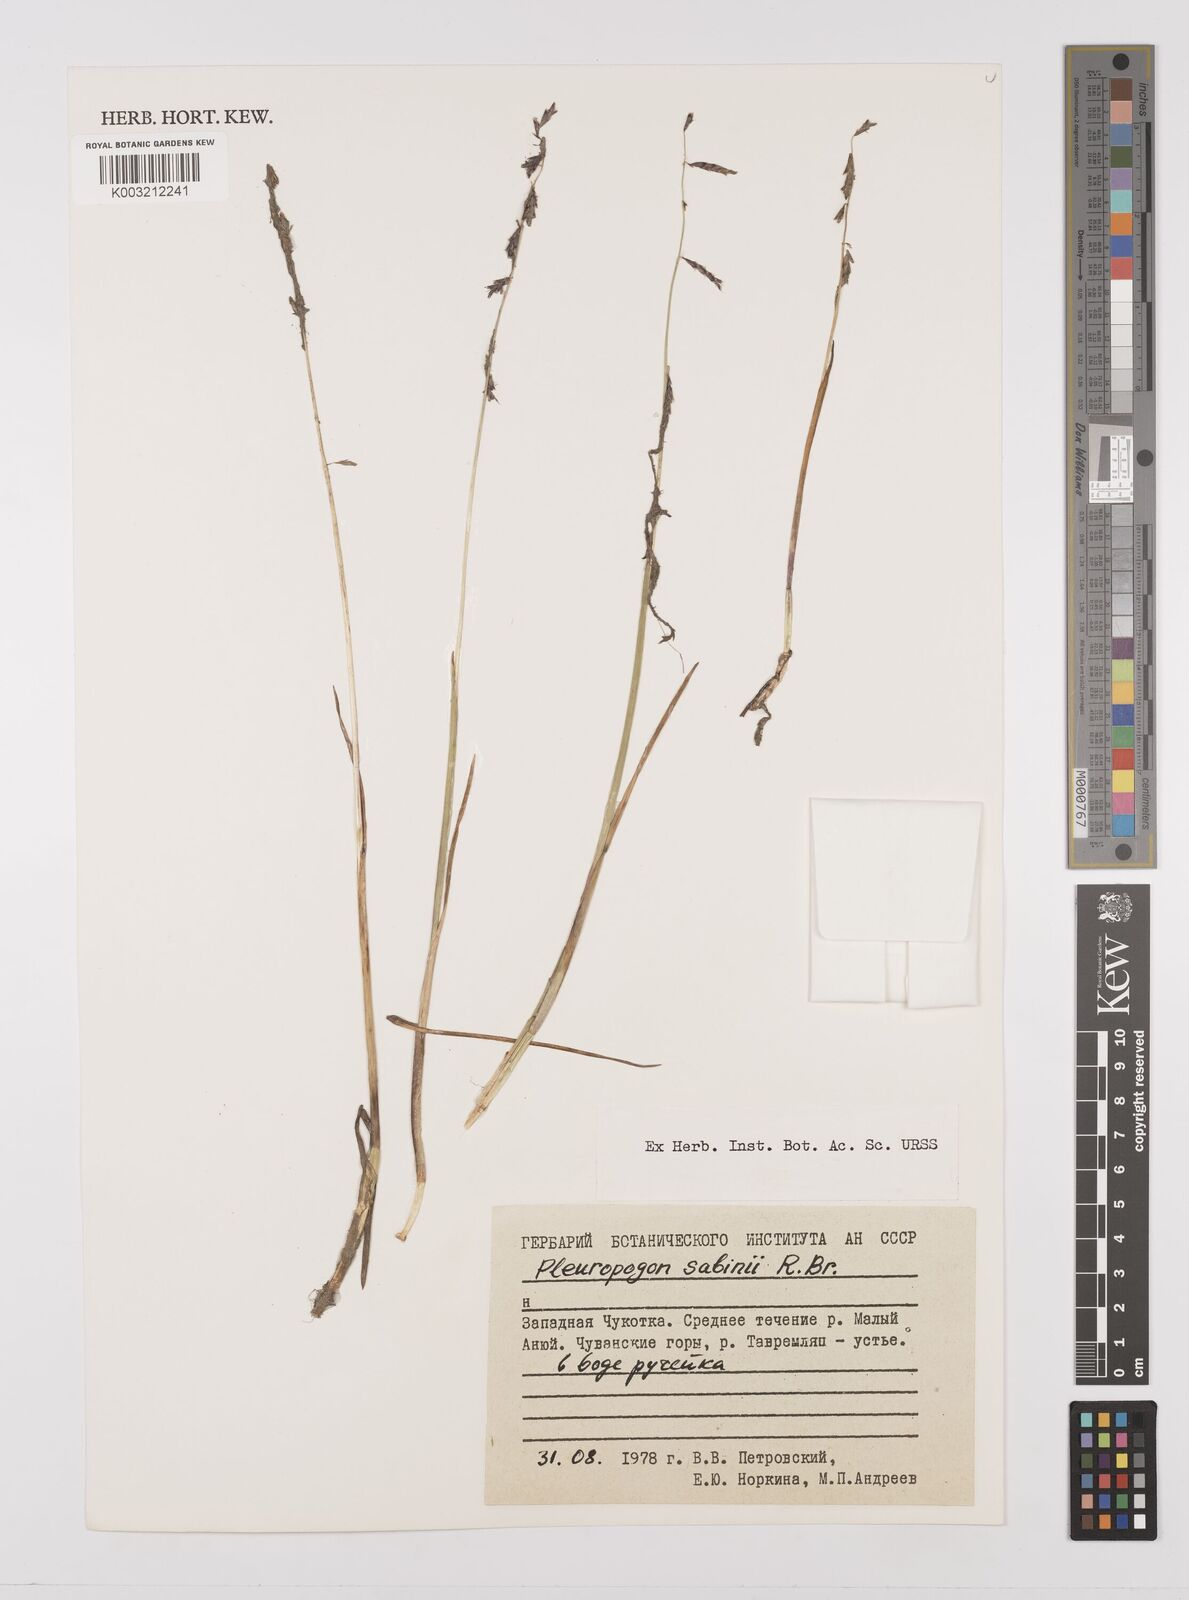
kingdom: Plantae
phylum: Tracheophyta
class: Liliopsida
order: Poales
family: Poaceae
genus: Pleuropogon
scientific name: Pleuropogon sabinei
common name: Sabine's false semaphoregrass
